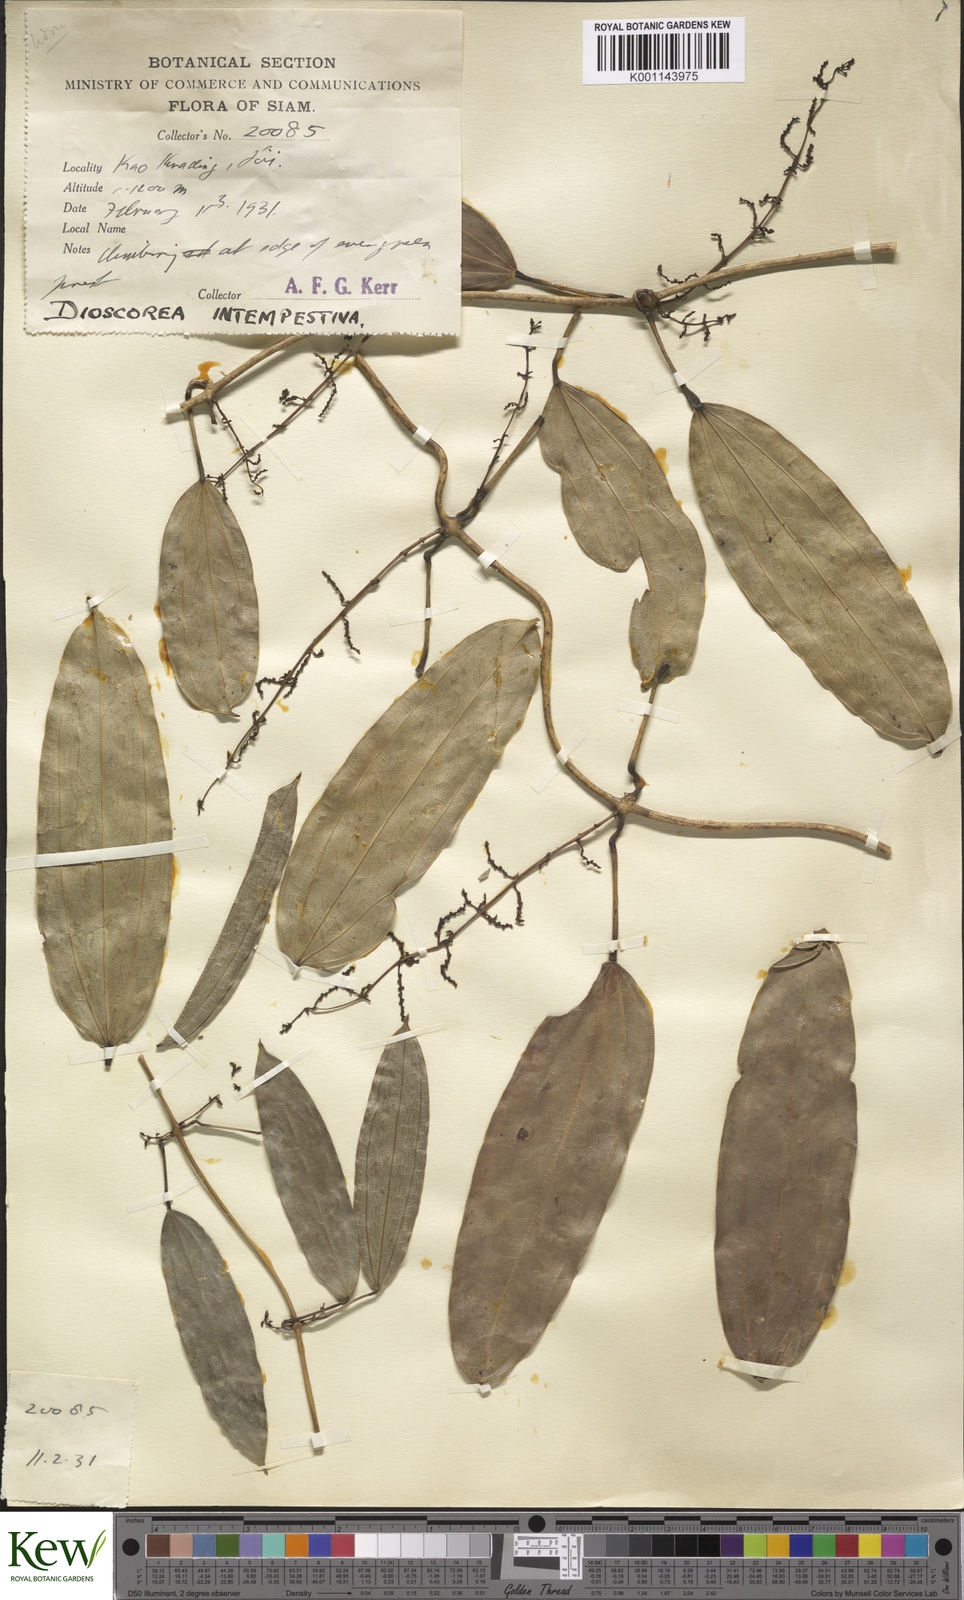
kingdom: Plantae
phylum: Tracheophyta
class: Liliopsida
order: Dioscoreales
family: Dioscoreaceae
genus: Dioscorea
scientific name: Dioscorea cirrhosa
